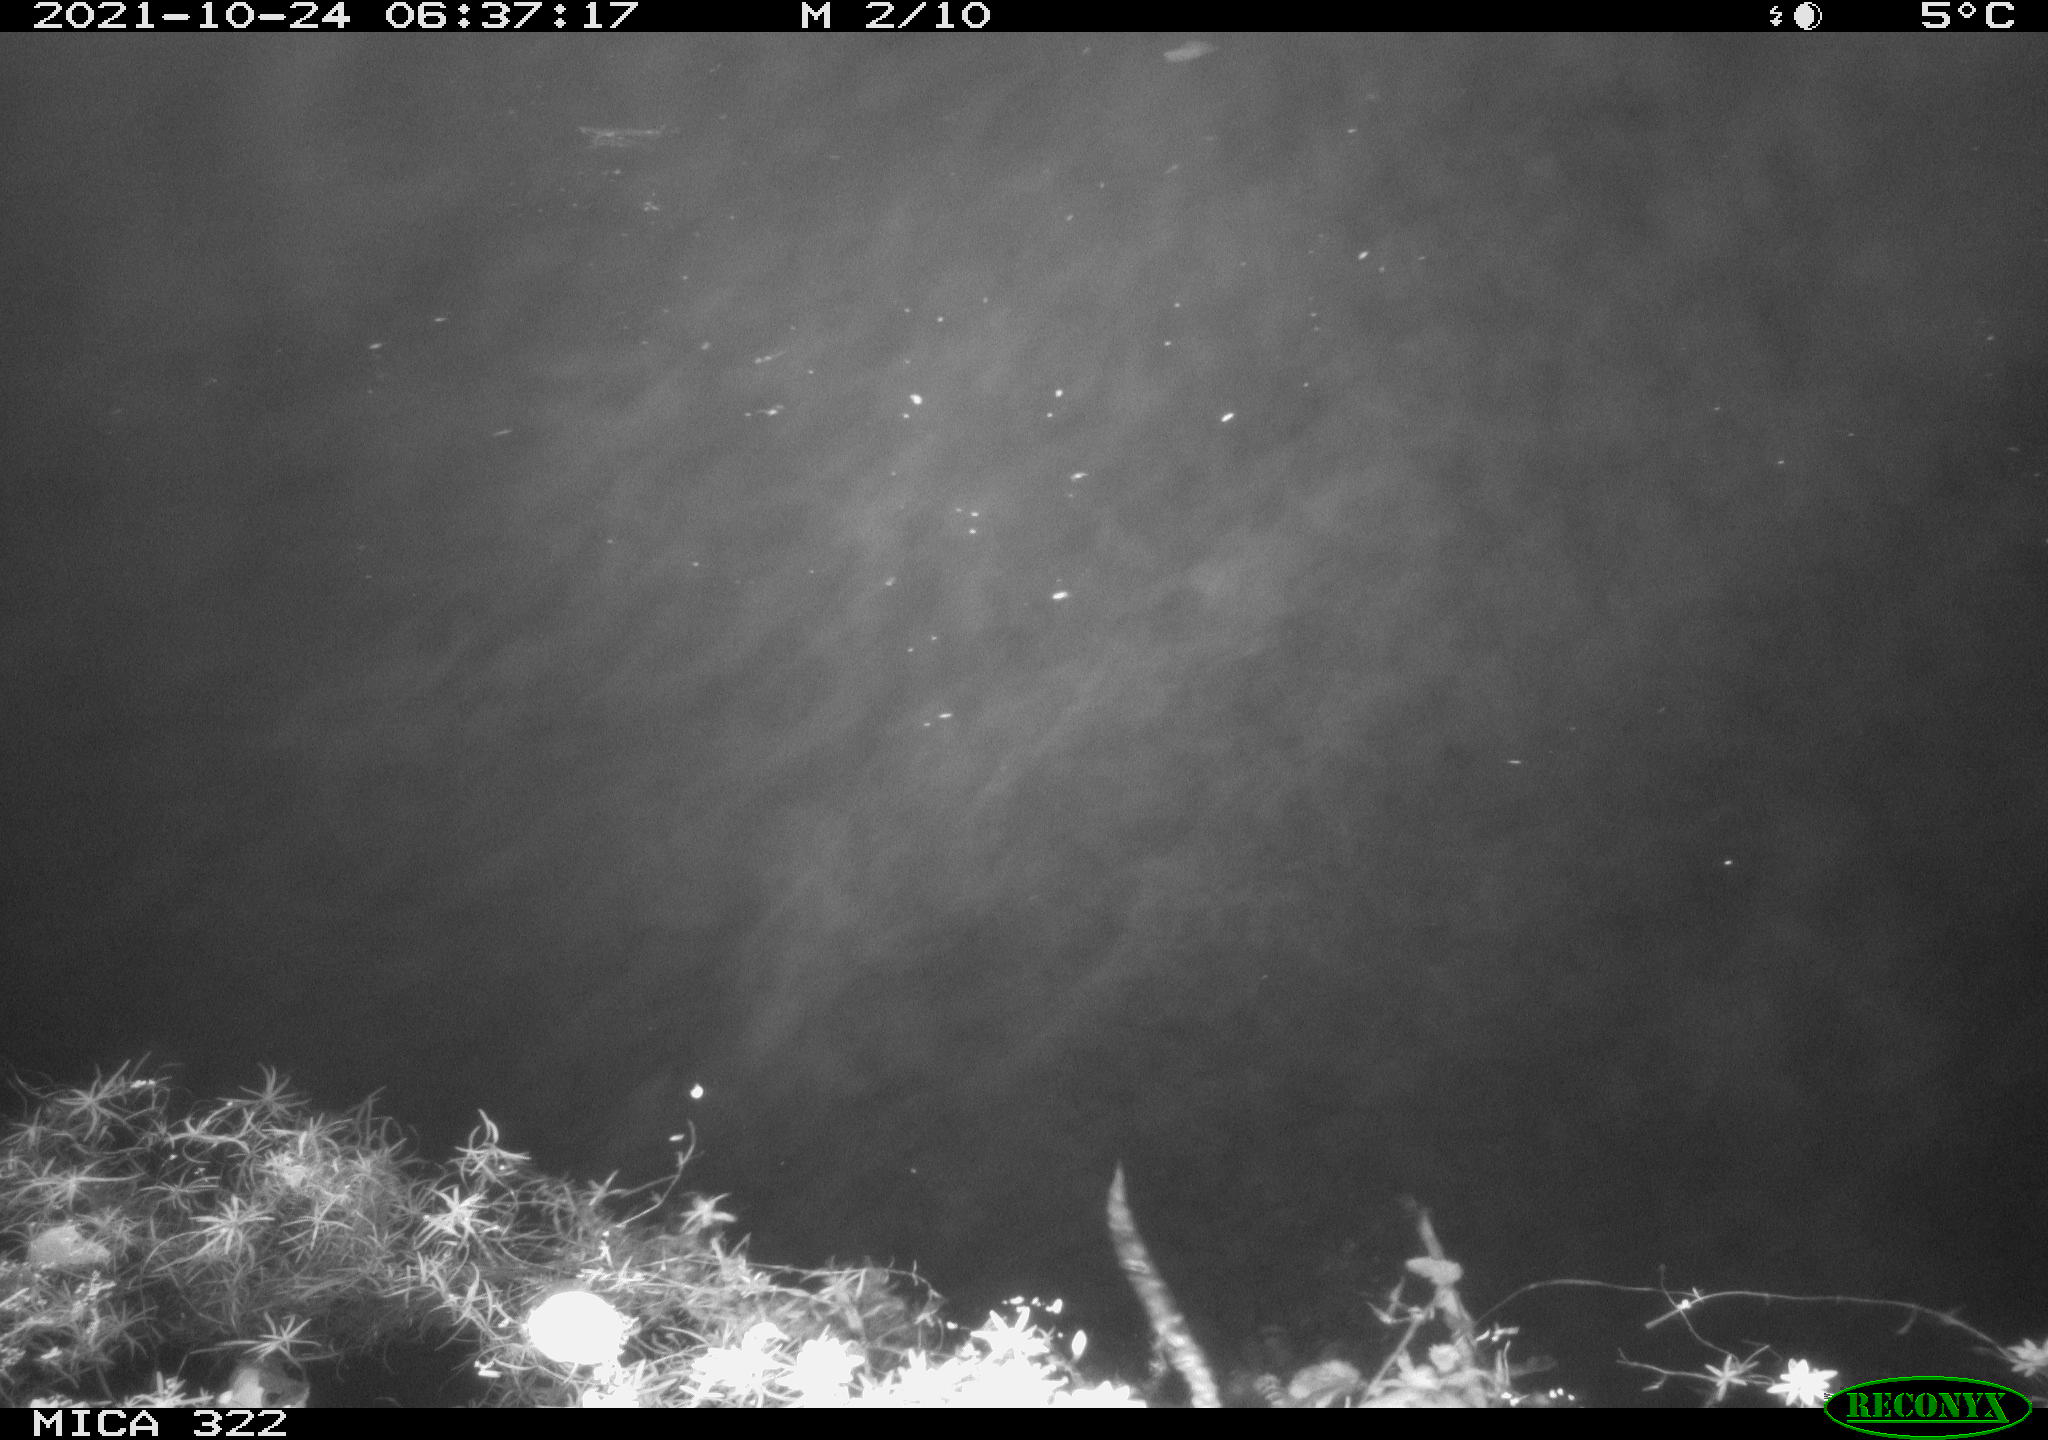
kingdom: Animalia
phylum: Chordata
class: Mammalia
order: Rodentia
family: Cricetidae
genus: Ondatra
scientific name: Ondatra zibethicus
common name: Muskrat
